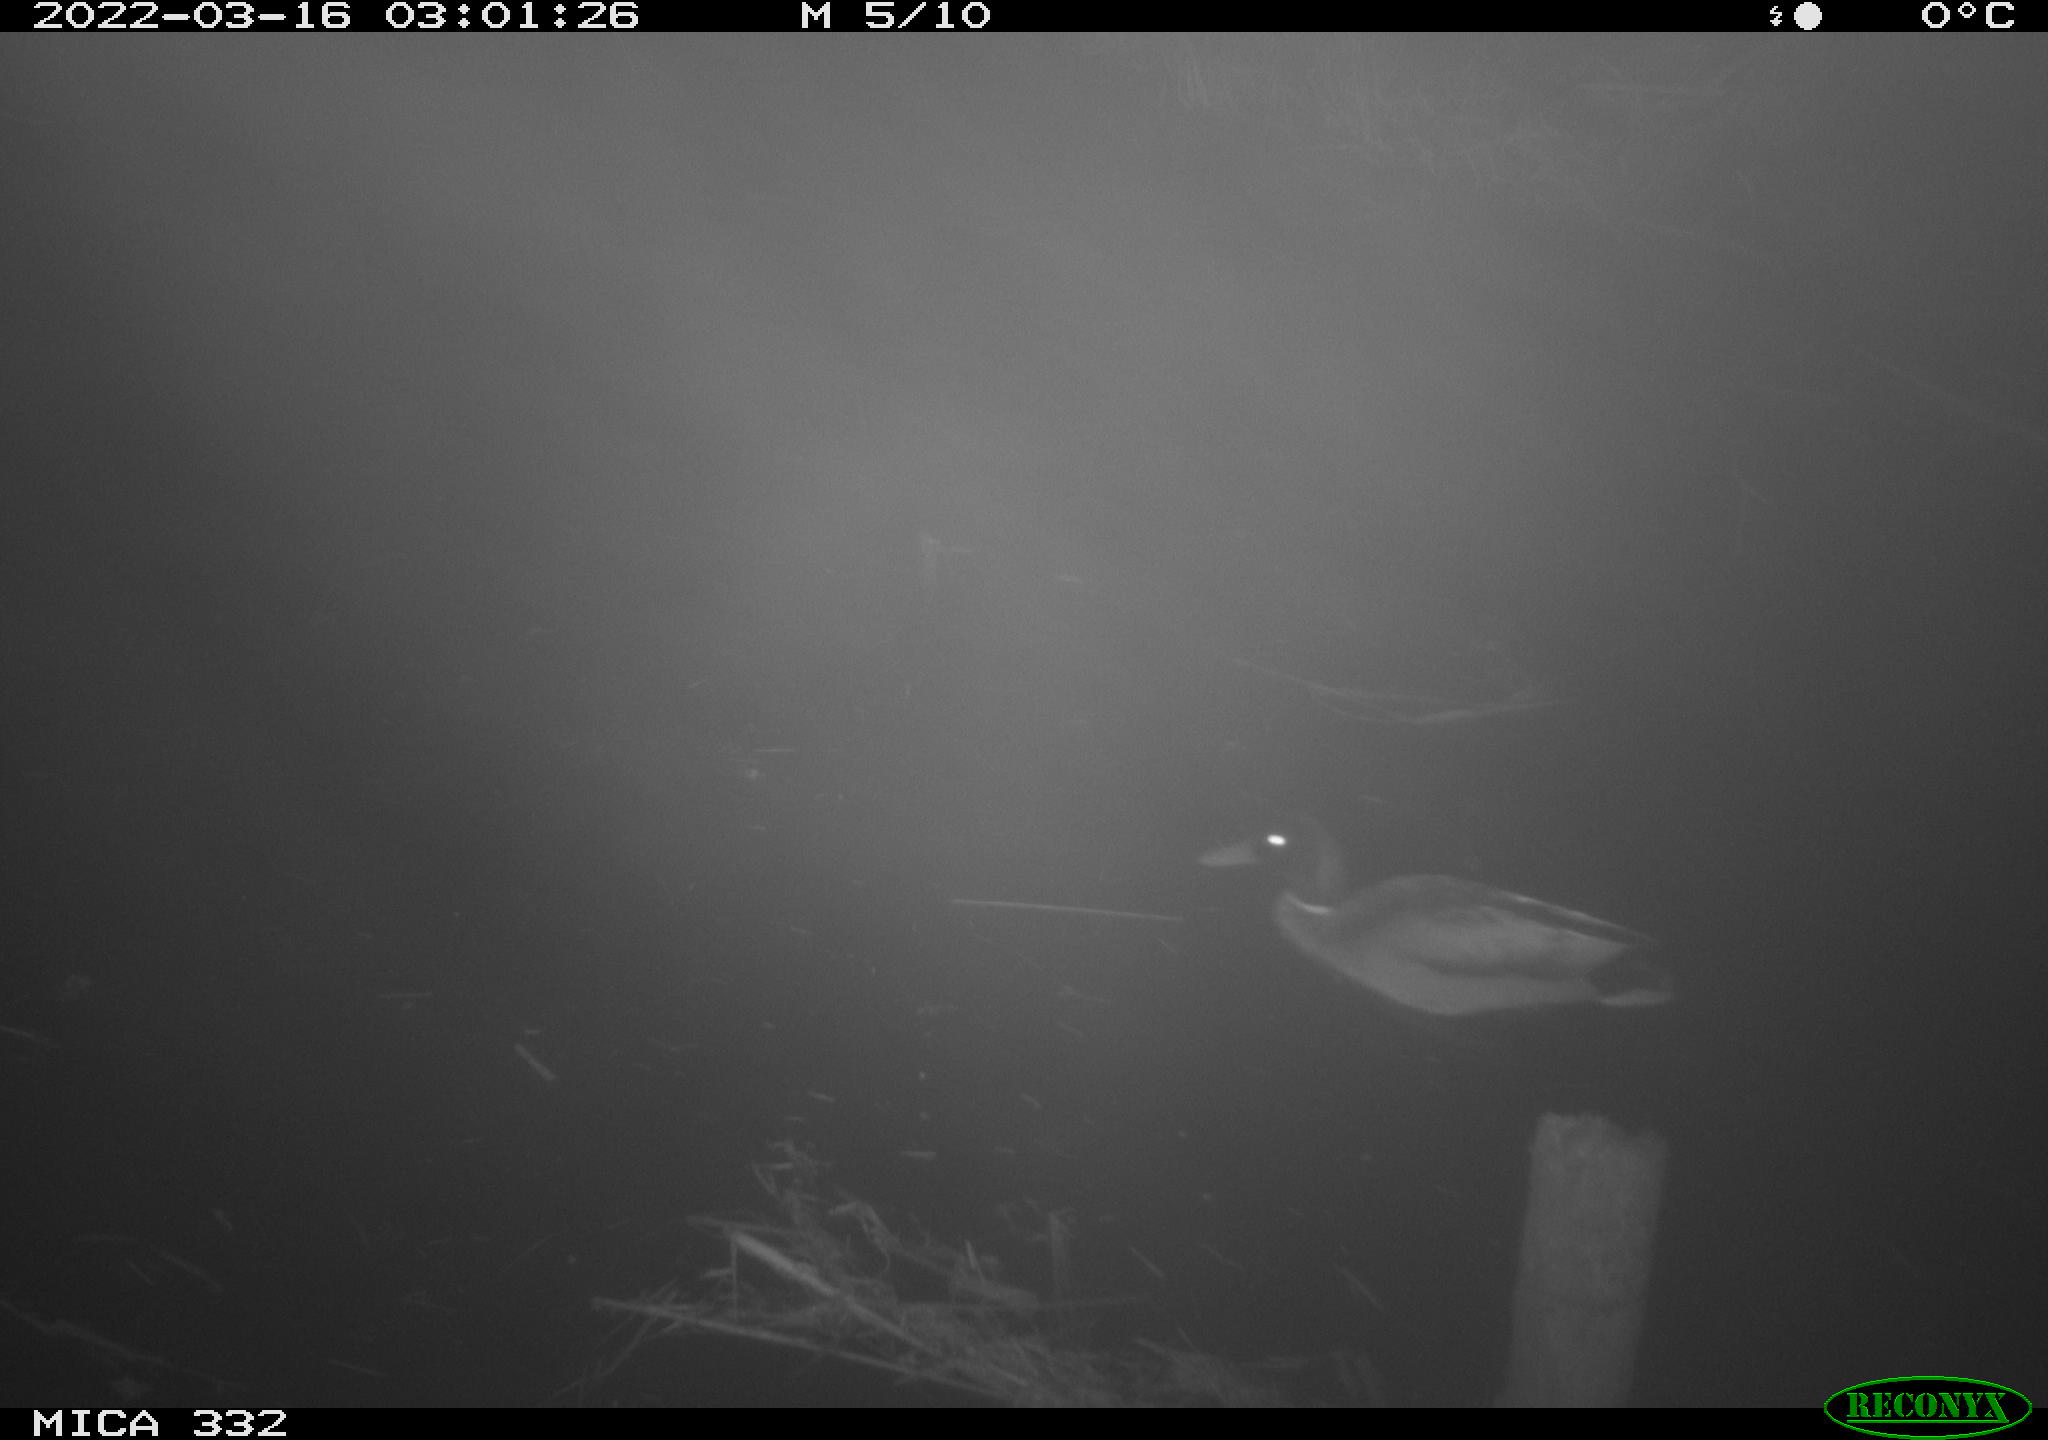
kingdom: Animalia
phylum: Chordata
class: Aves
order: Anseriformes
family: Anatidae
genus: Anas
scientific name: Anas platyrhynchos
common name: Mallard
